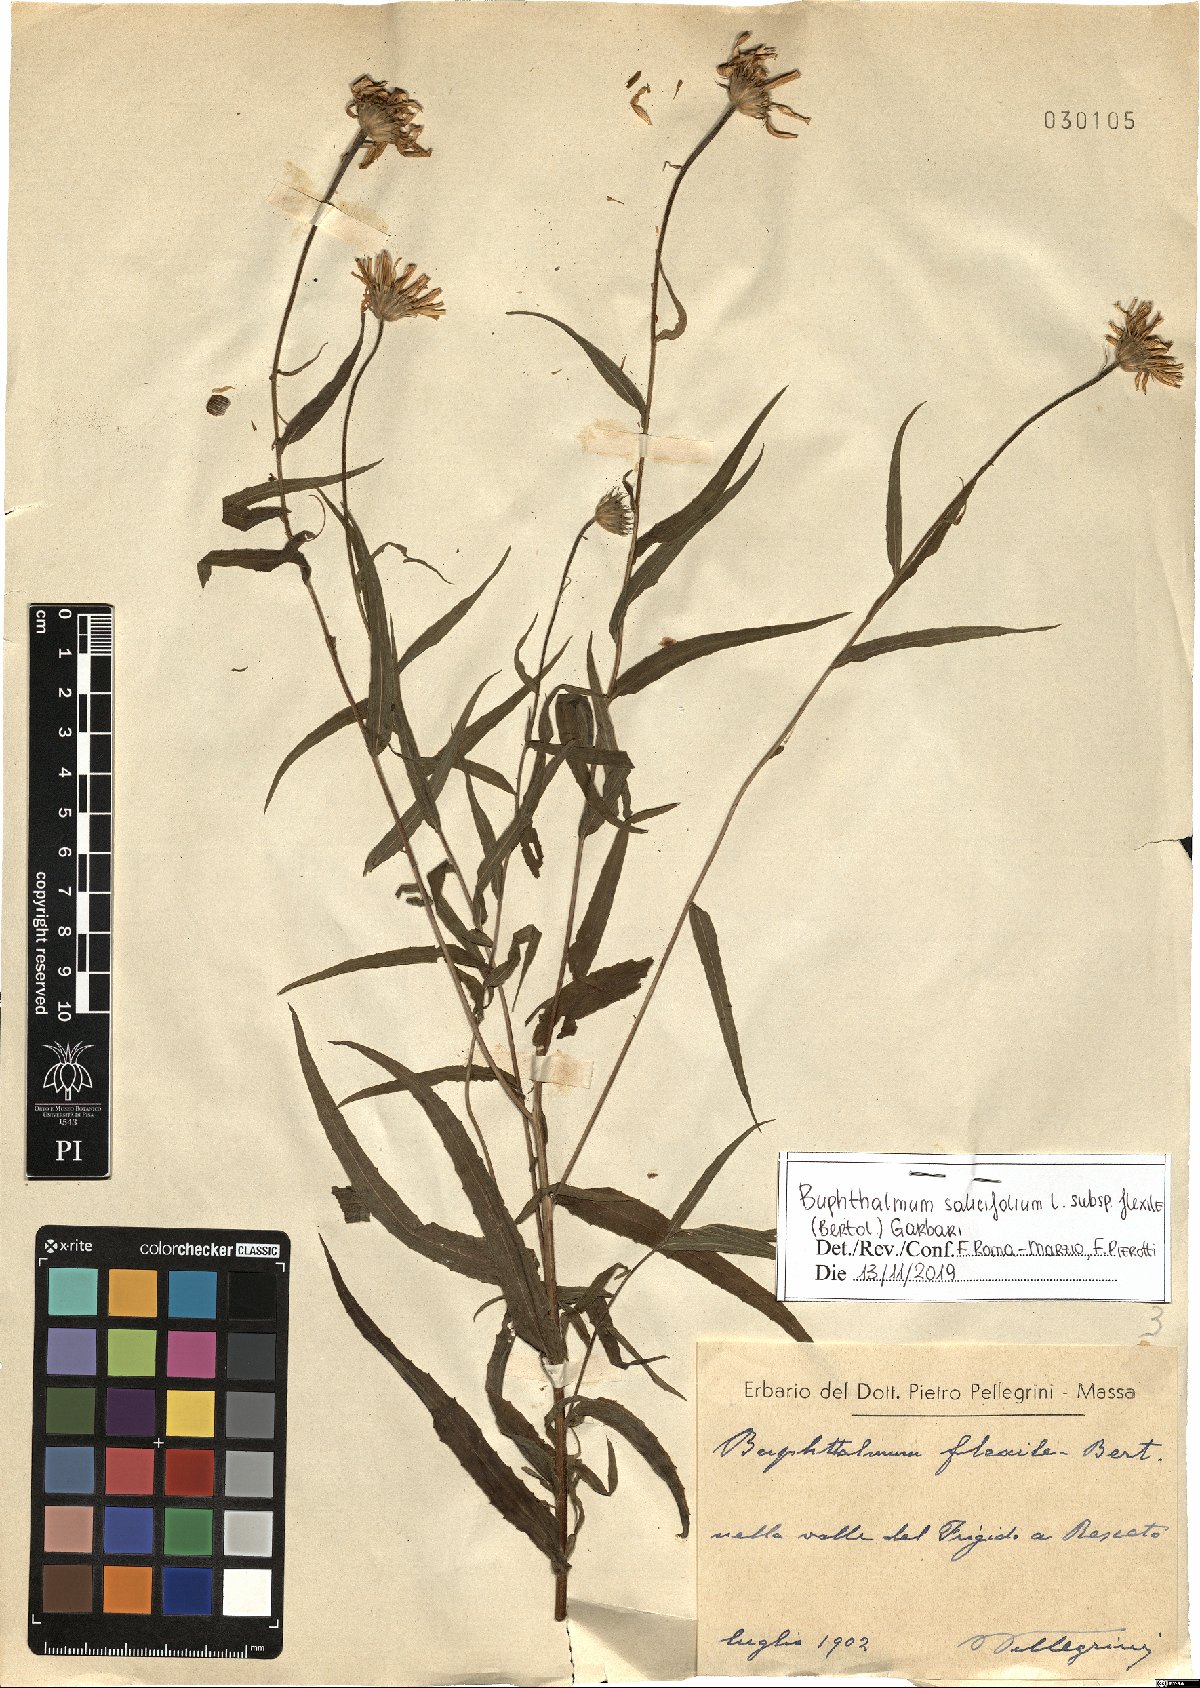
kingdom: Plantae
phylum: Tracheophyta
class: Magnoliopsida
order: Asterales
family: Asteraceae
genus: Buphthalmum
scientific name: Buphthalmum salicifolium
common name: Willow-leaved yellow-oxeye
